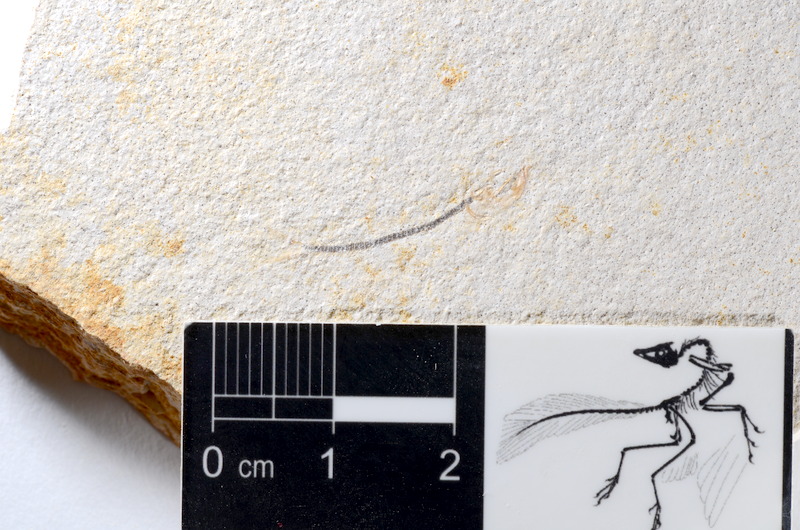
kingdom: Animalia
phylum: Chordata
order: Salmoniformes
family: Orthogonikleithridae
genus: Orthogonikleithrus
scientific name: Orthogonikleithrus hoelli
